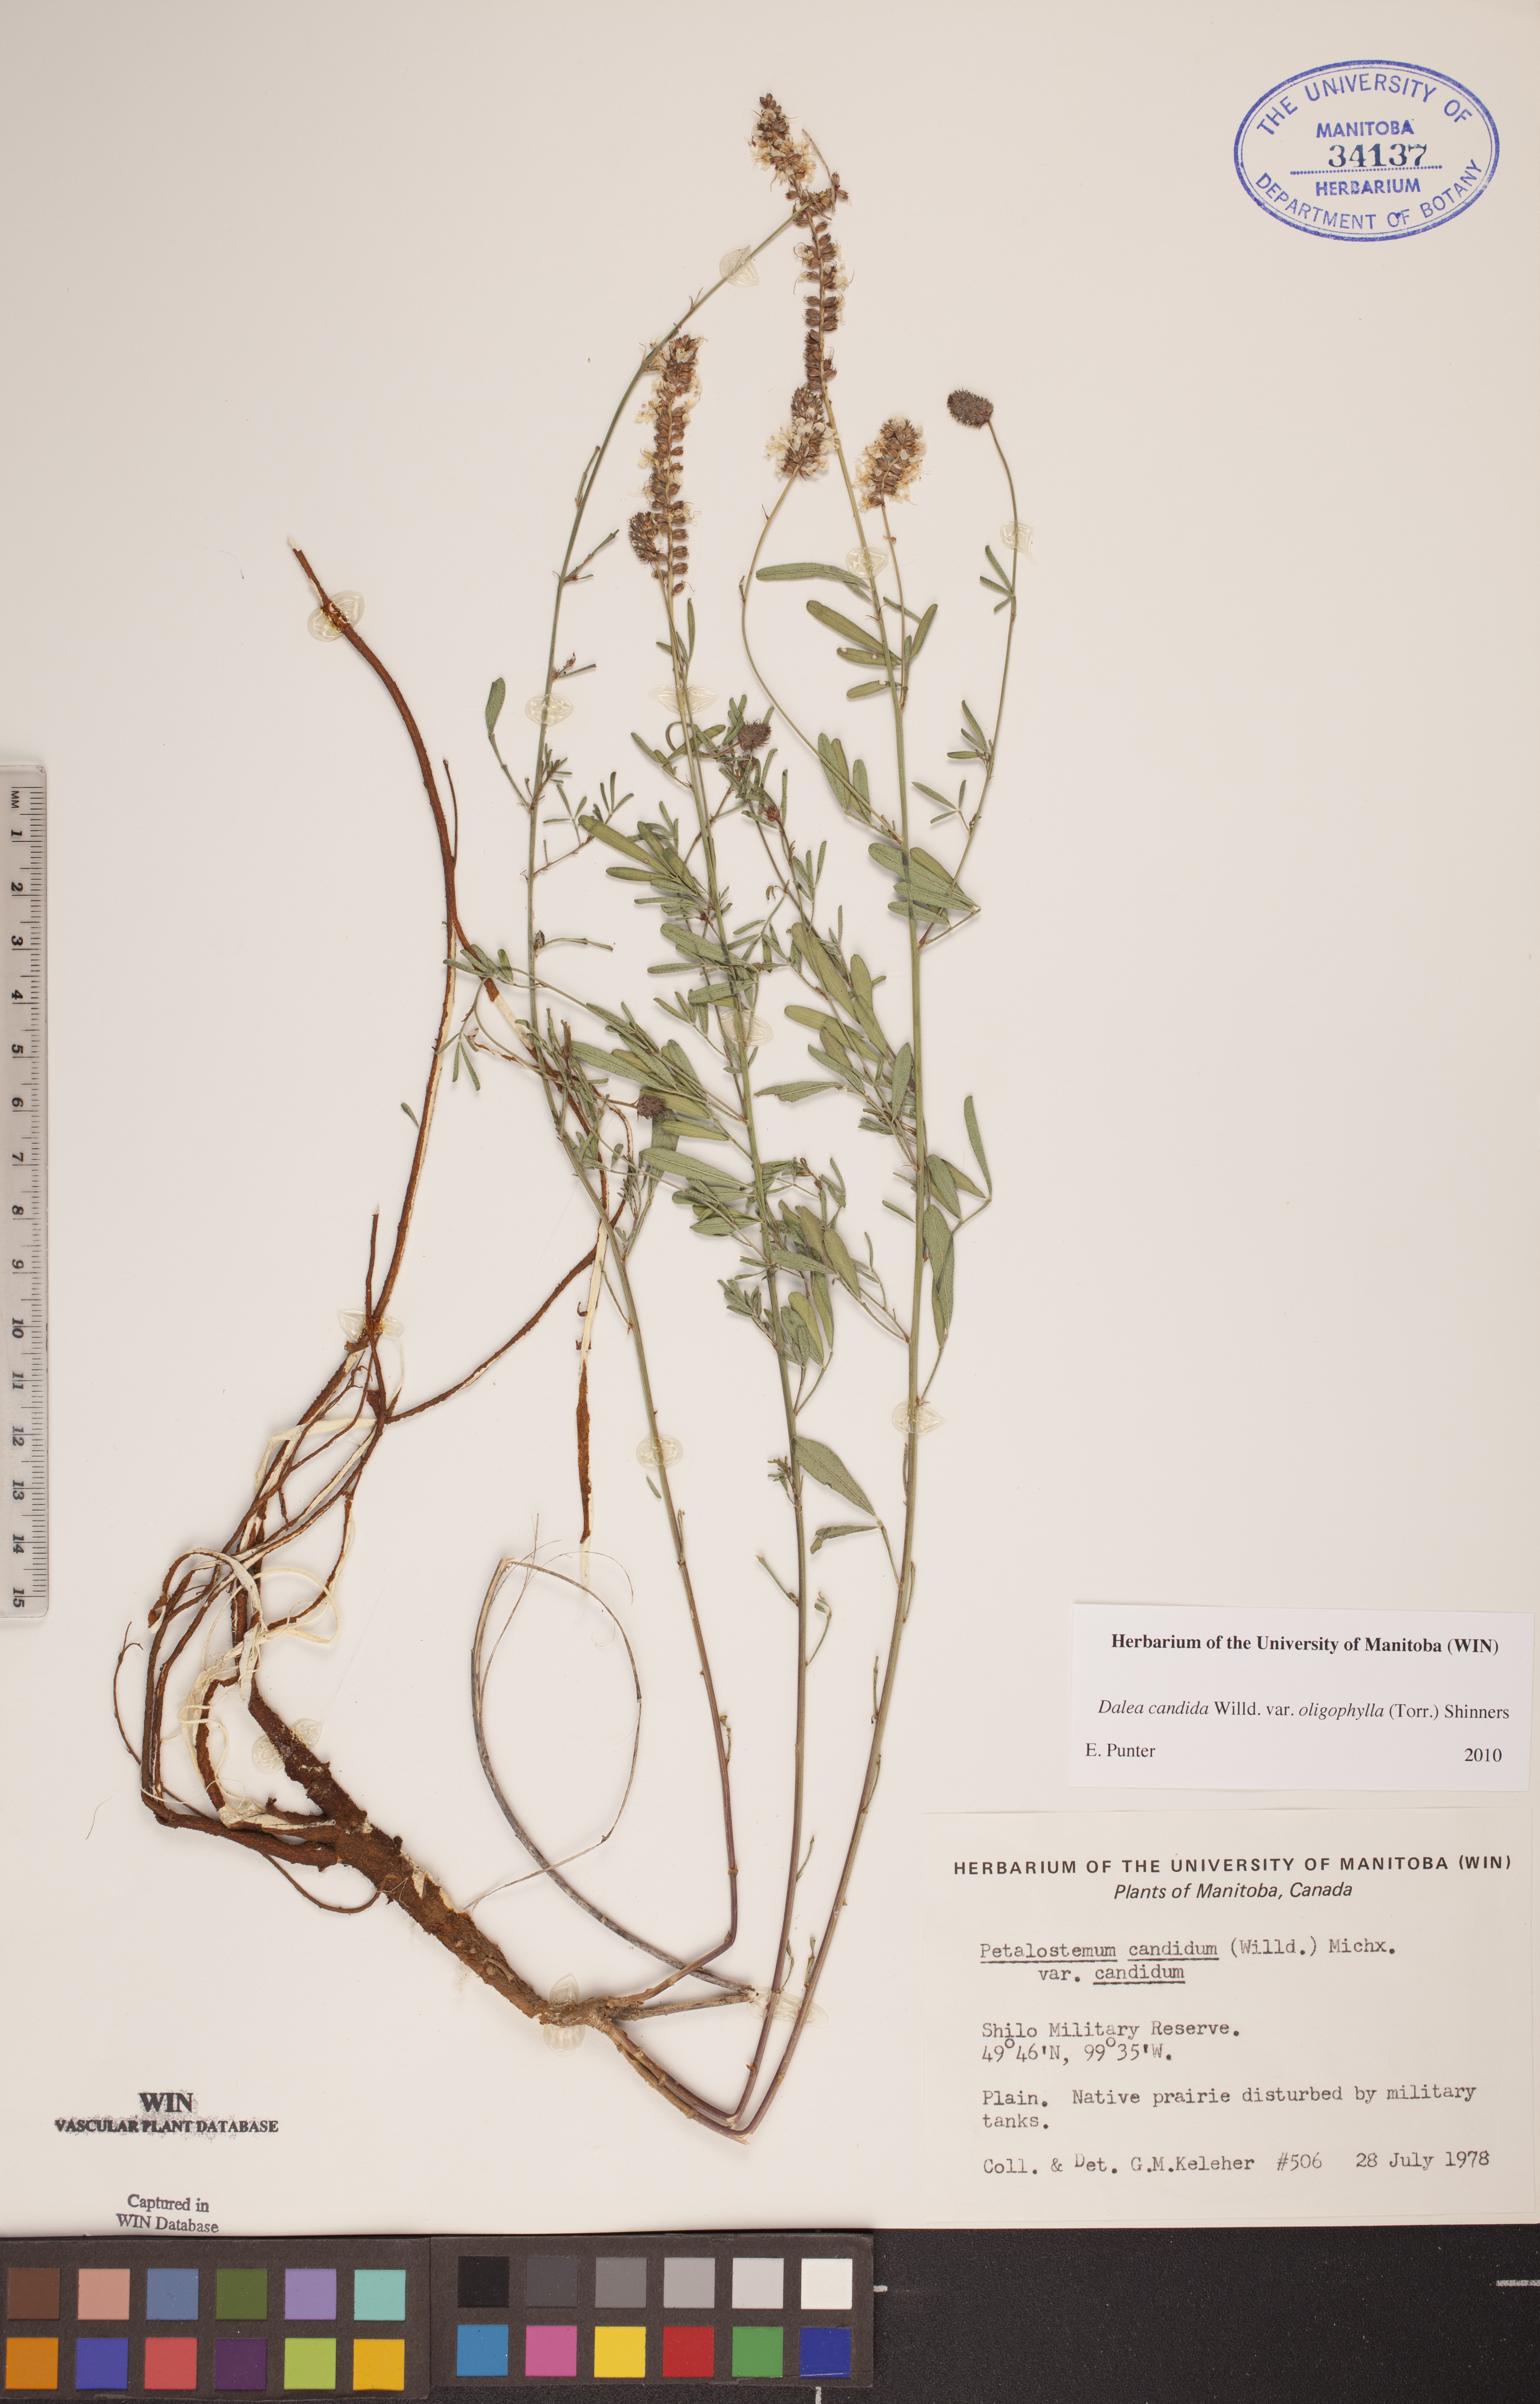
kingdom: Plantae
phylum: Tracheophyta
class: Magnoliopsida
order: Fabales
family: Fabaceae
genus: Dalea
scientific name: Dalea candida
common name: White prairie-clover
